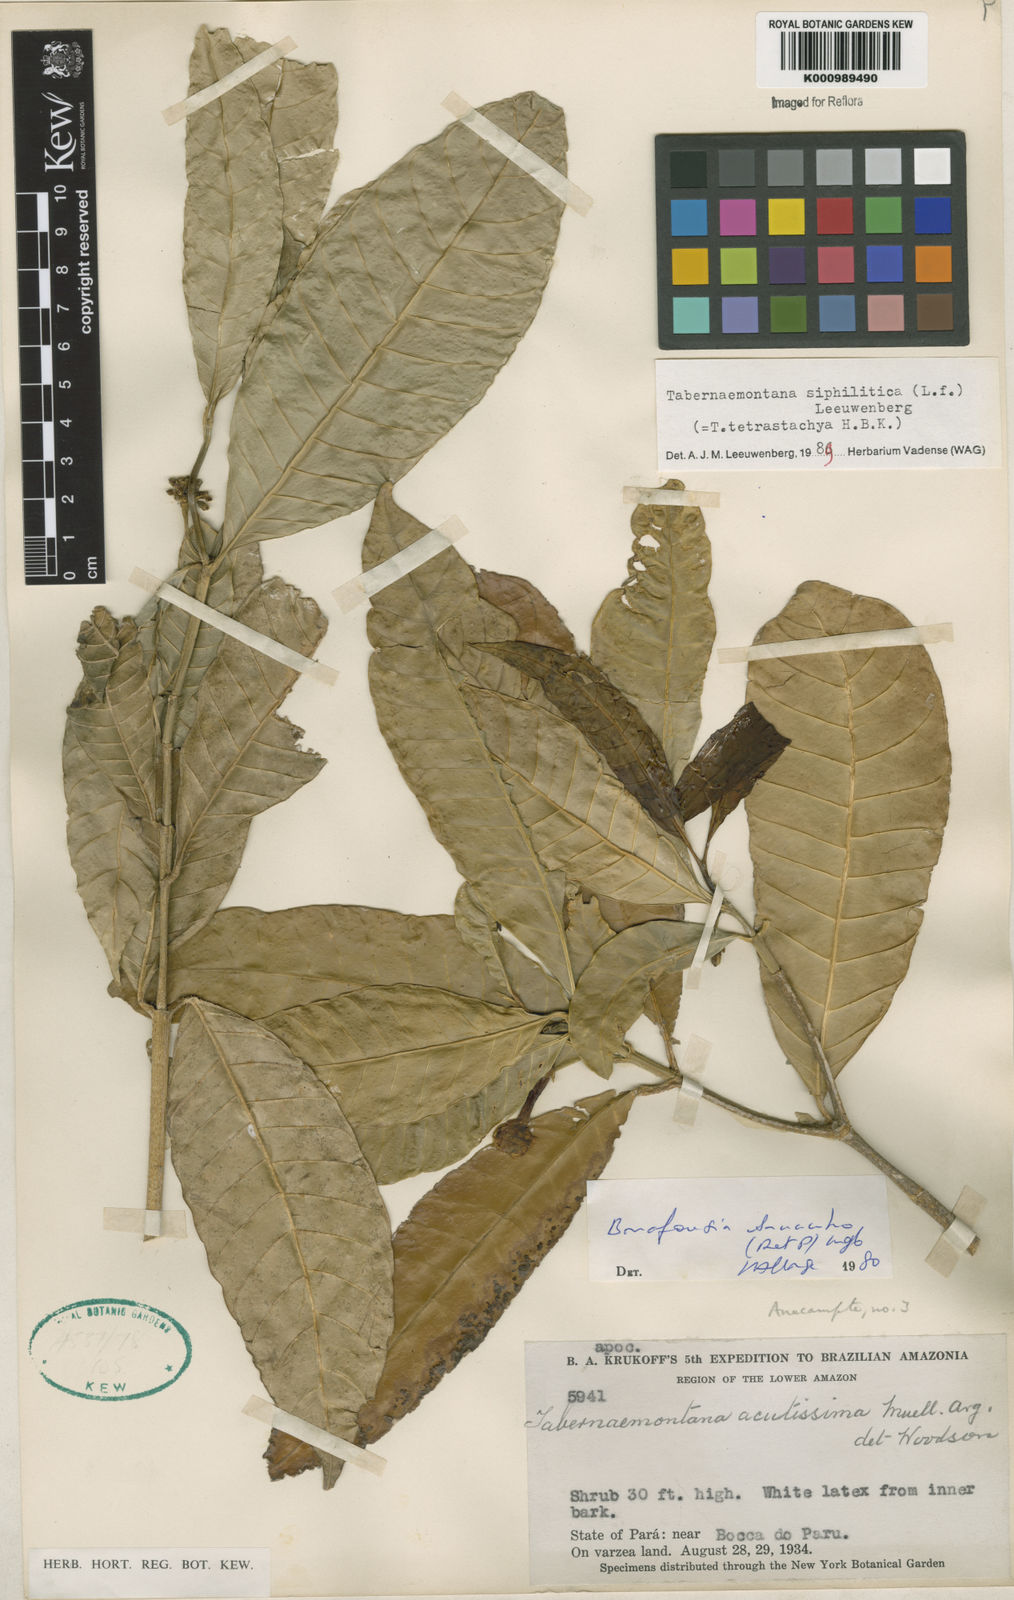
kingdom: Plantae
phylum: Tracheophyta
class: Magnoliopsida
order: Gentianales
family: Apocynaceae
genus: Tabernaemontana
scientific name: Tabernaemontana siphilitica
